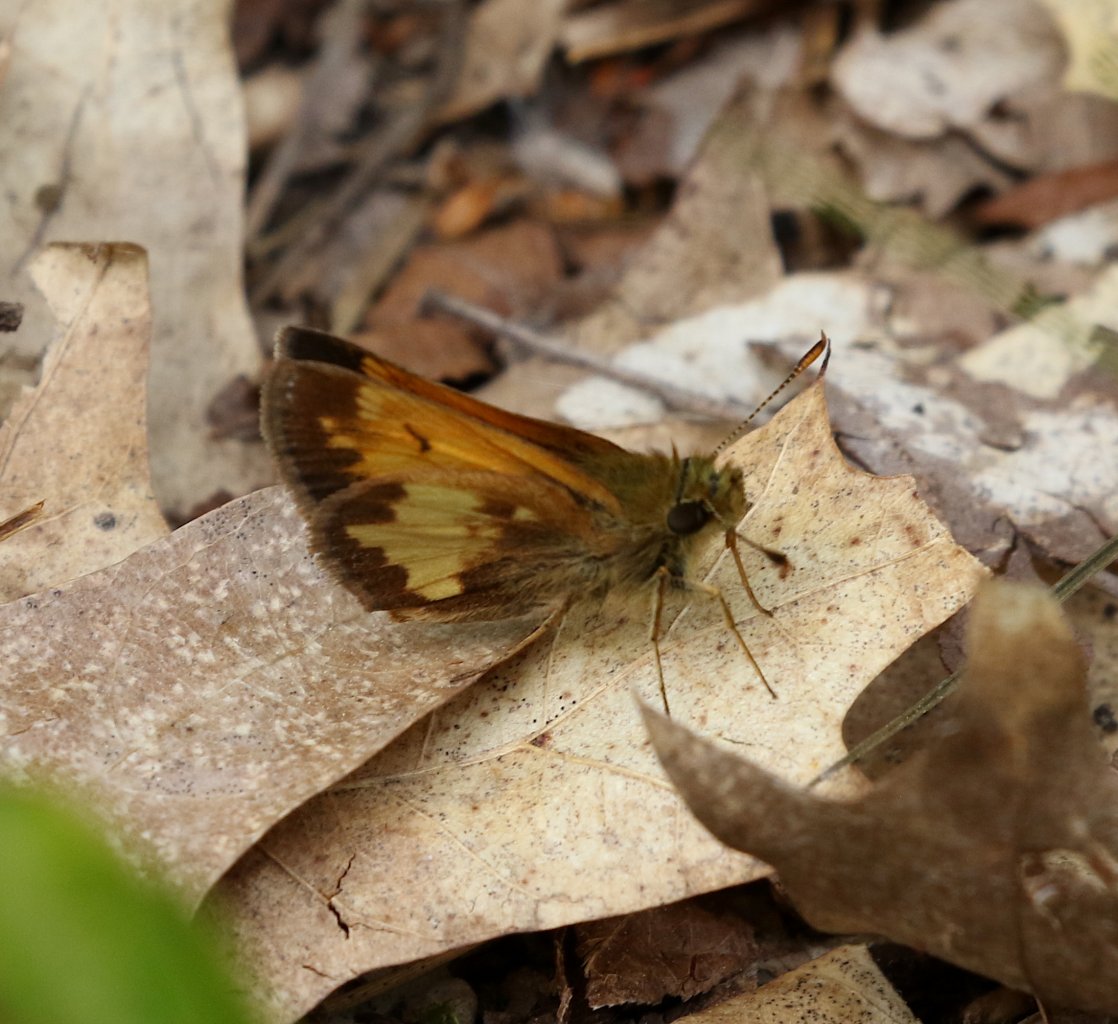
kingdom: Animalia
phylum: Arthropoda
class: Insecta
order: Lepidoptera
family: Hesperiidae
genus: Polites
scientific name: Polites coras
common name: Peck's Skipper
